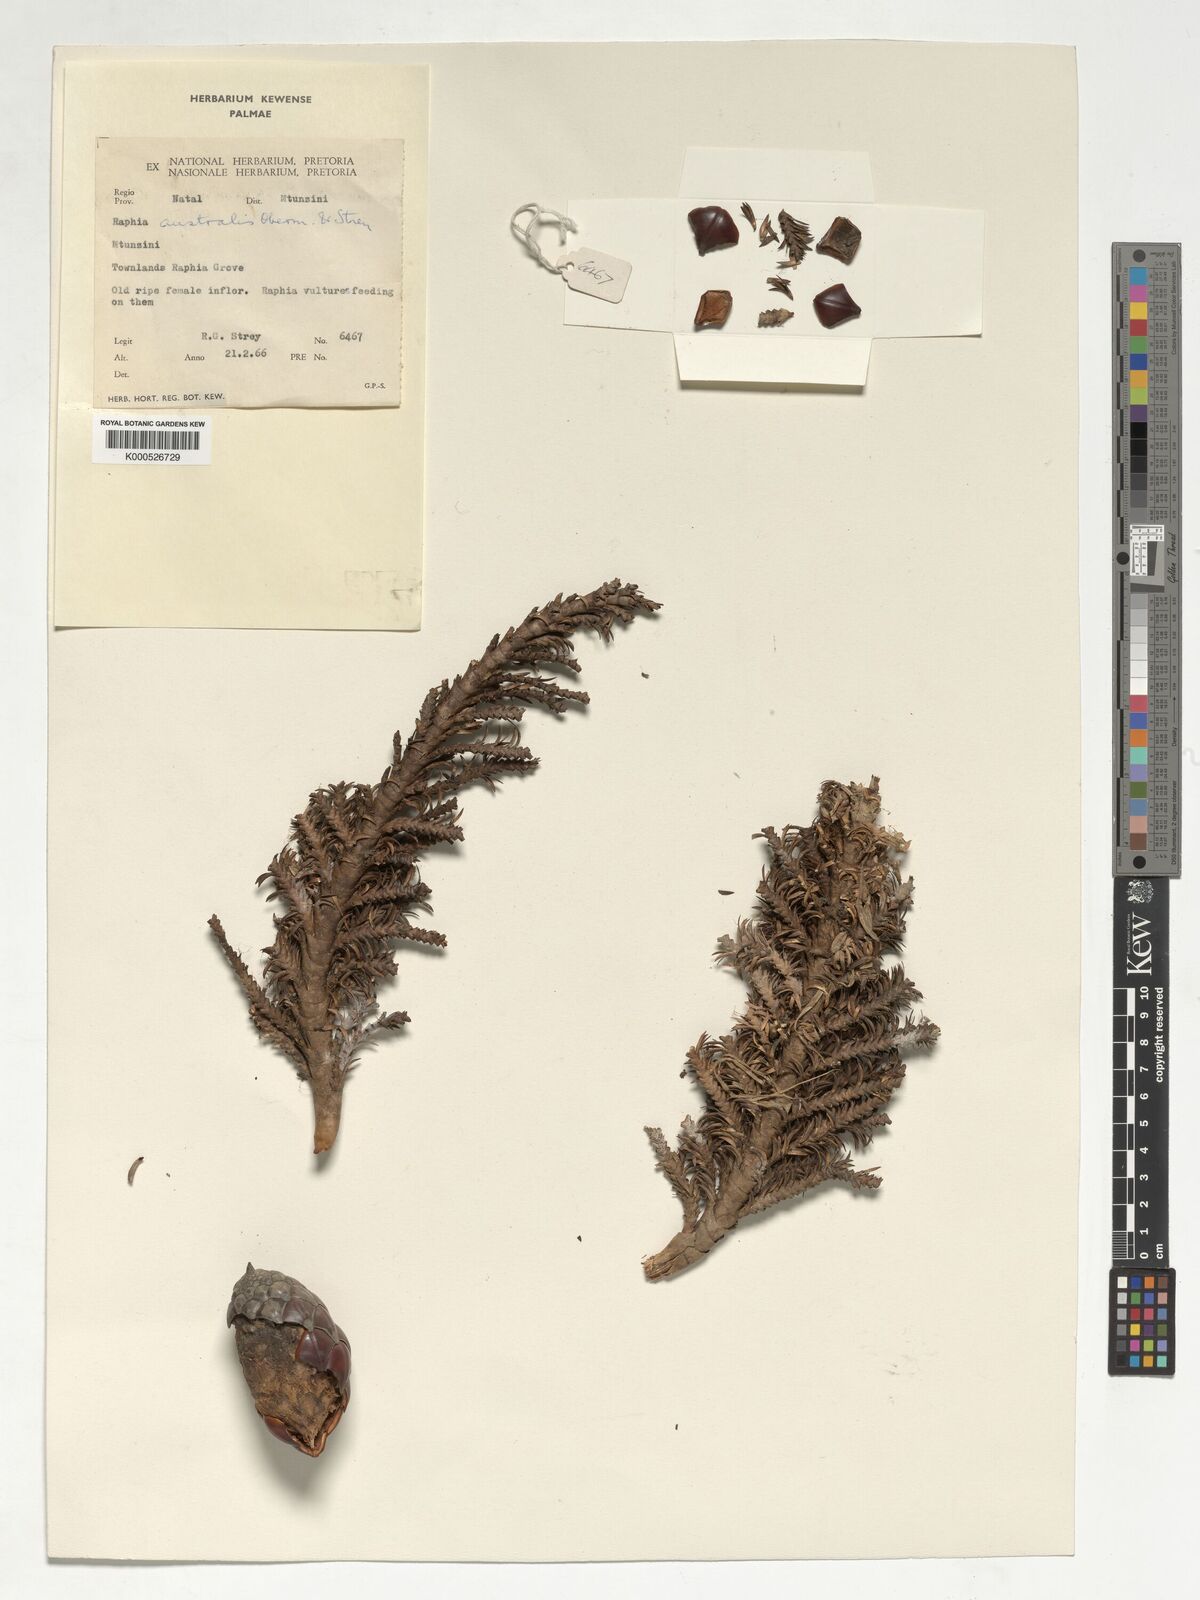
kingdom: Plantae
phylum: Tracheophyta
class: Liliopsida
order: Arecales
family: Arecaceae
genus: Raphia
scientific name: Raphia australis
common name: Giant palm
